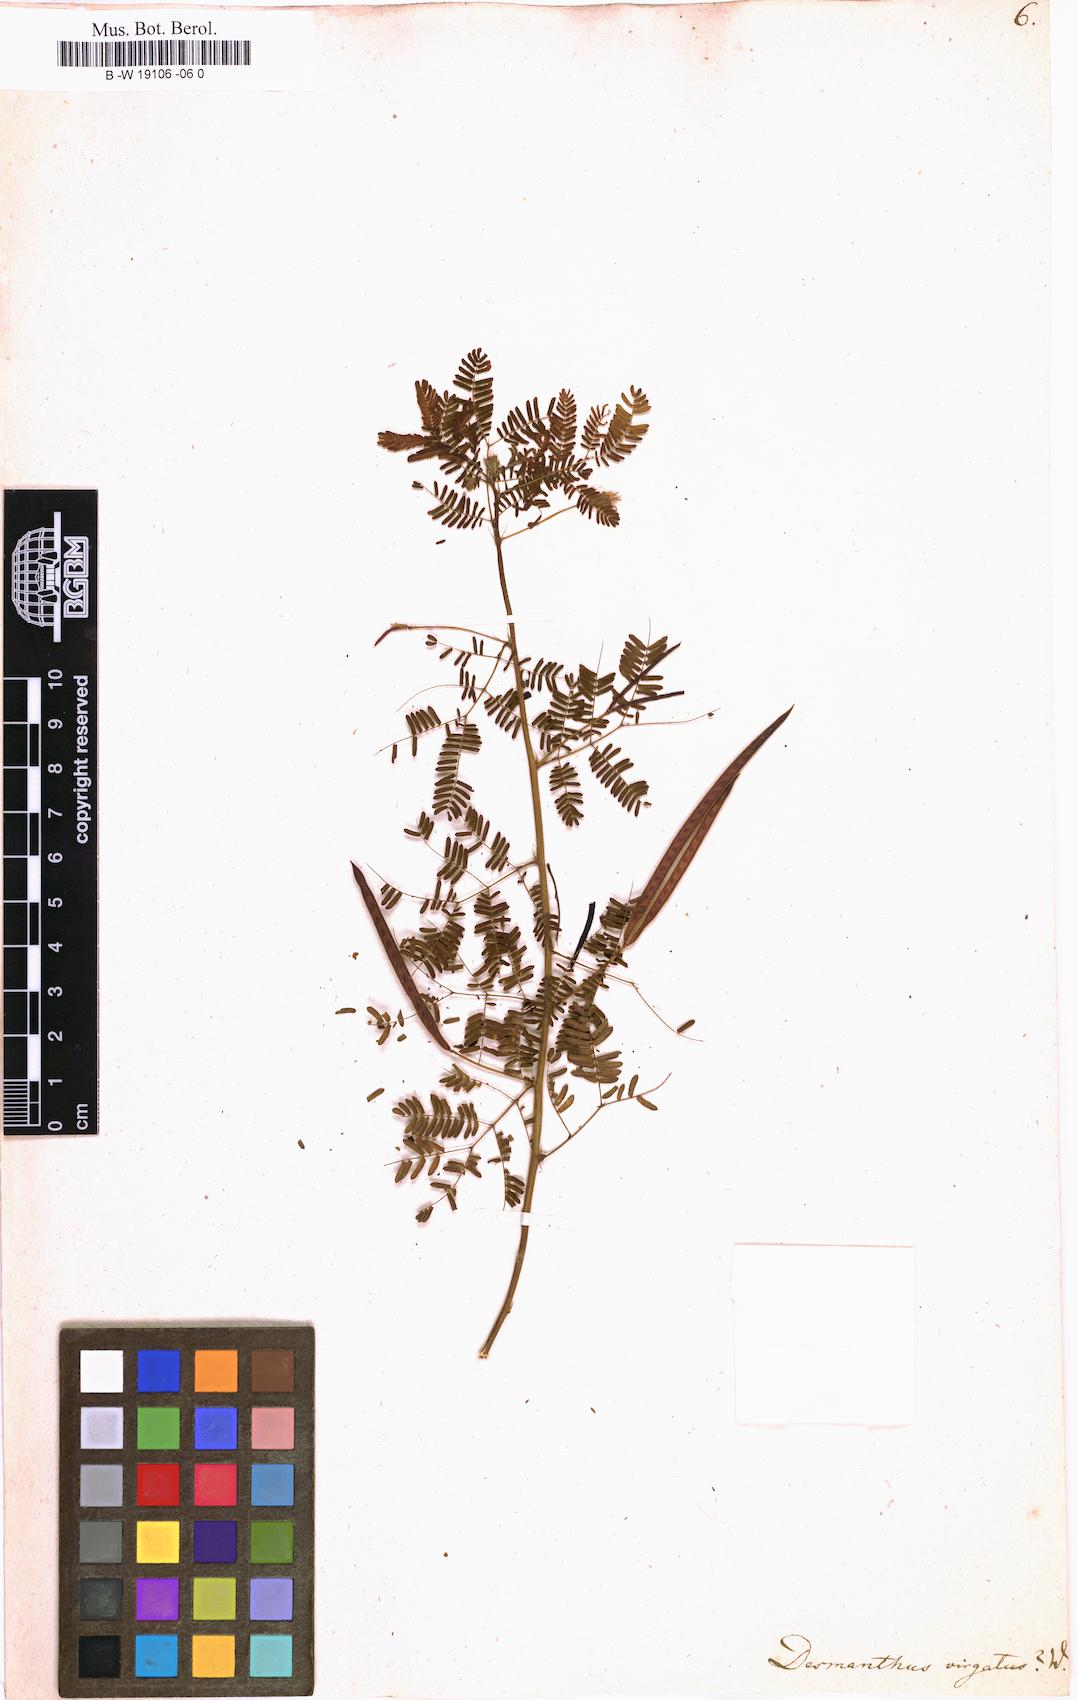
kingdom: Plantae
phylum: Tracheophyta
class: Magnoliopsida
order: Fabales
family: Fabaceae
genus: Desmanthus
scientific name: Desmanthus virgatus
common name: Wild tantan
